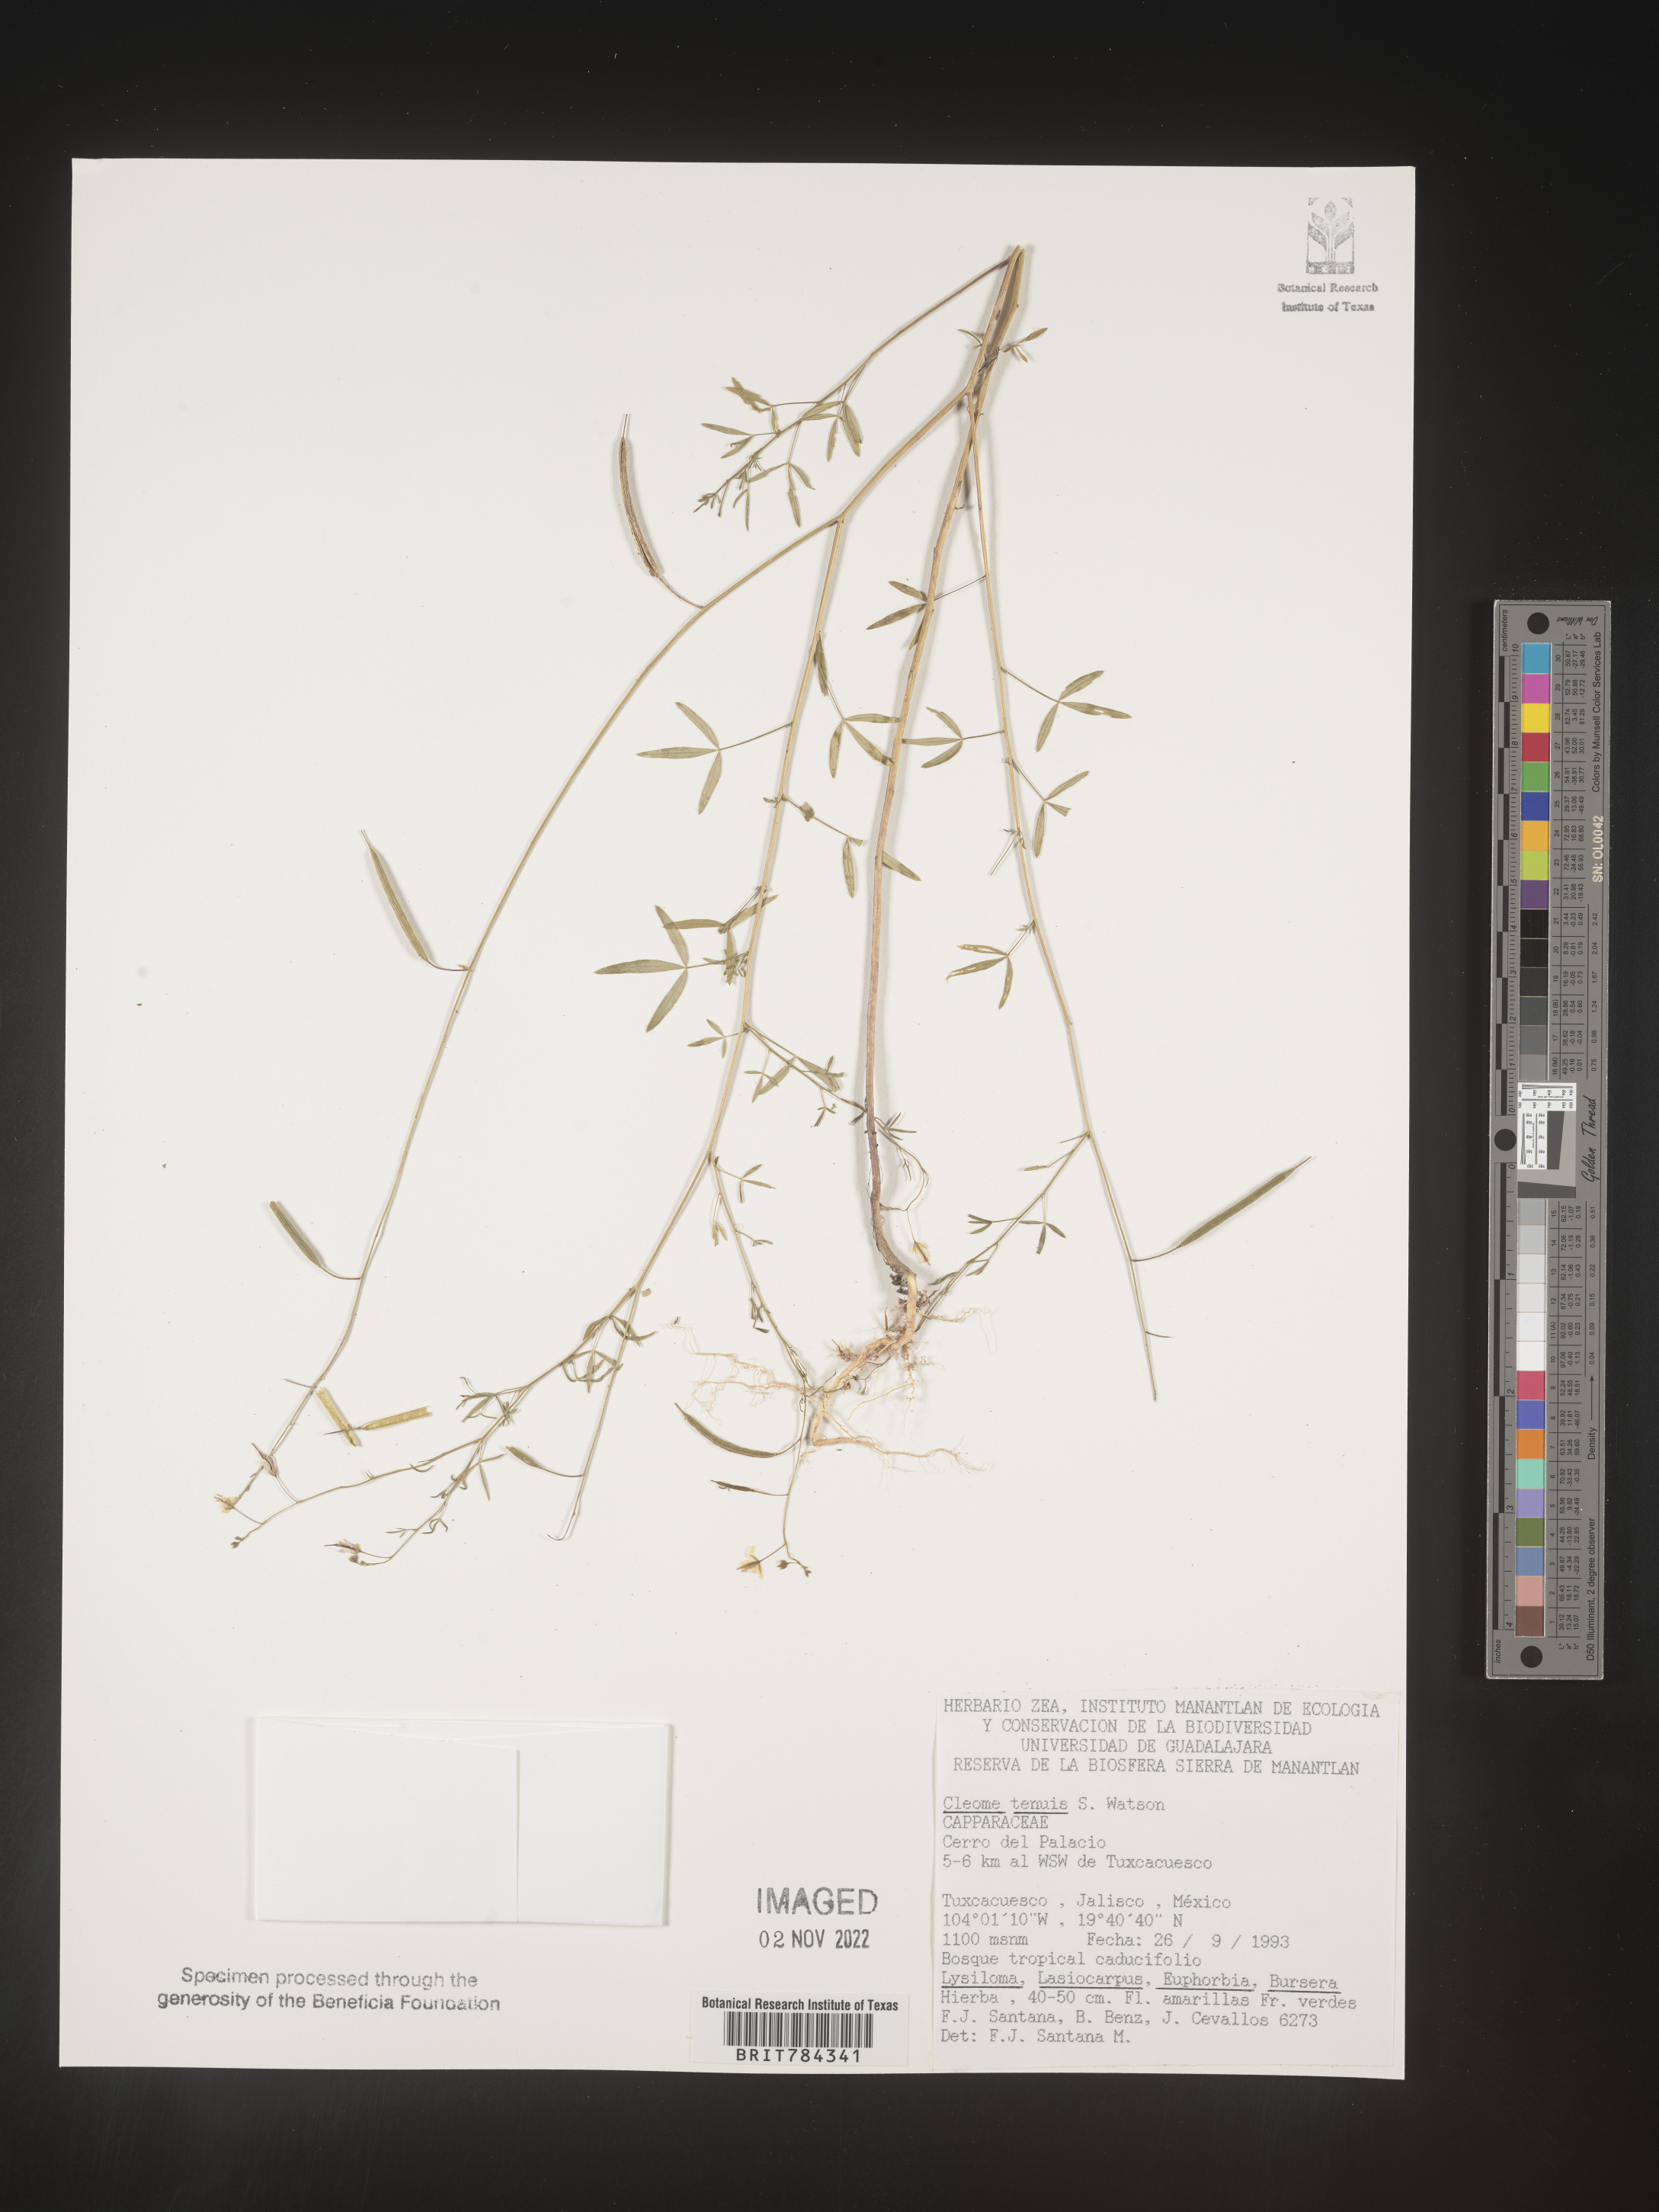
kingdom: Plantae
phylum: Tracheophyta
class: Magnoliopsida
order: Brassicales
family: Cleomaceae
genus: Cleome
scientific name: Cleome
